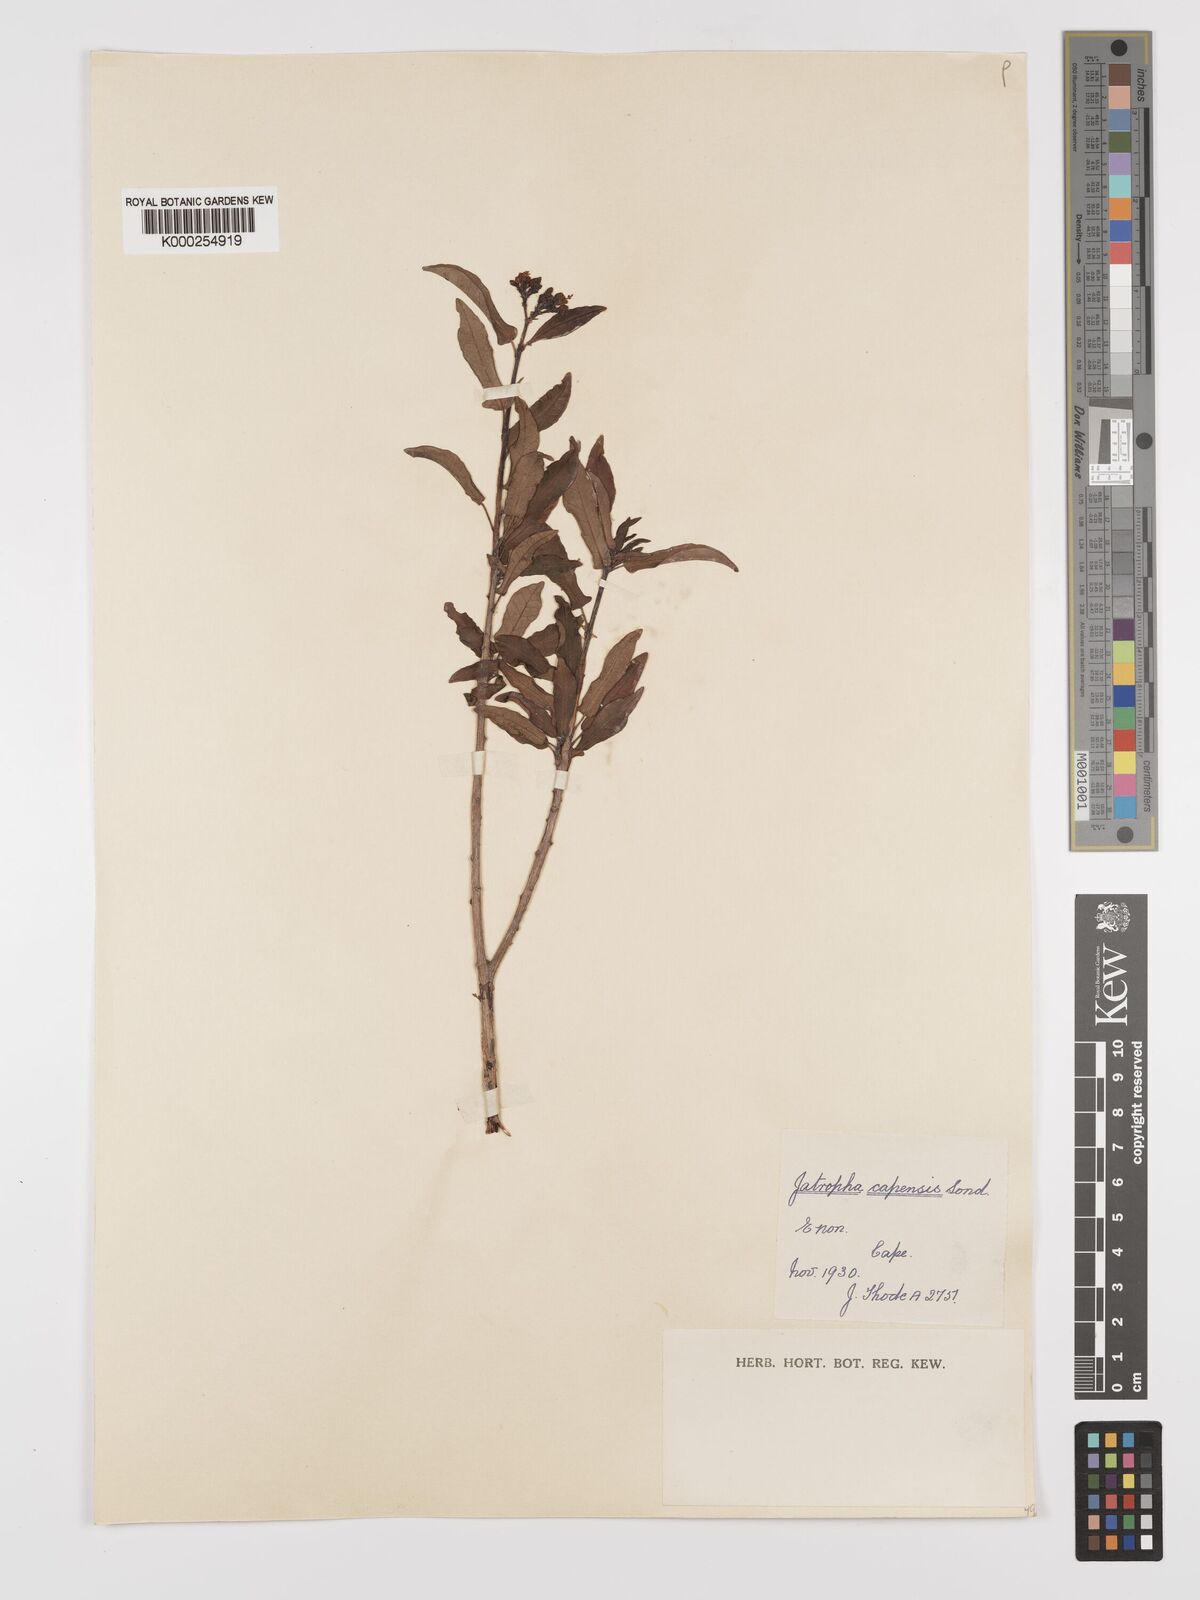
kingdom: Plantae
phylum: Tracheophyta
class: Magnoliopsida
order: Malpighiales
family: Euphorbiaceae
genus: Jatropha
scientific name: Jatropha capensis
